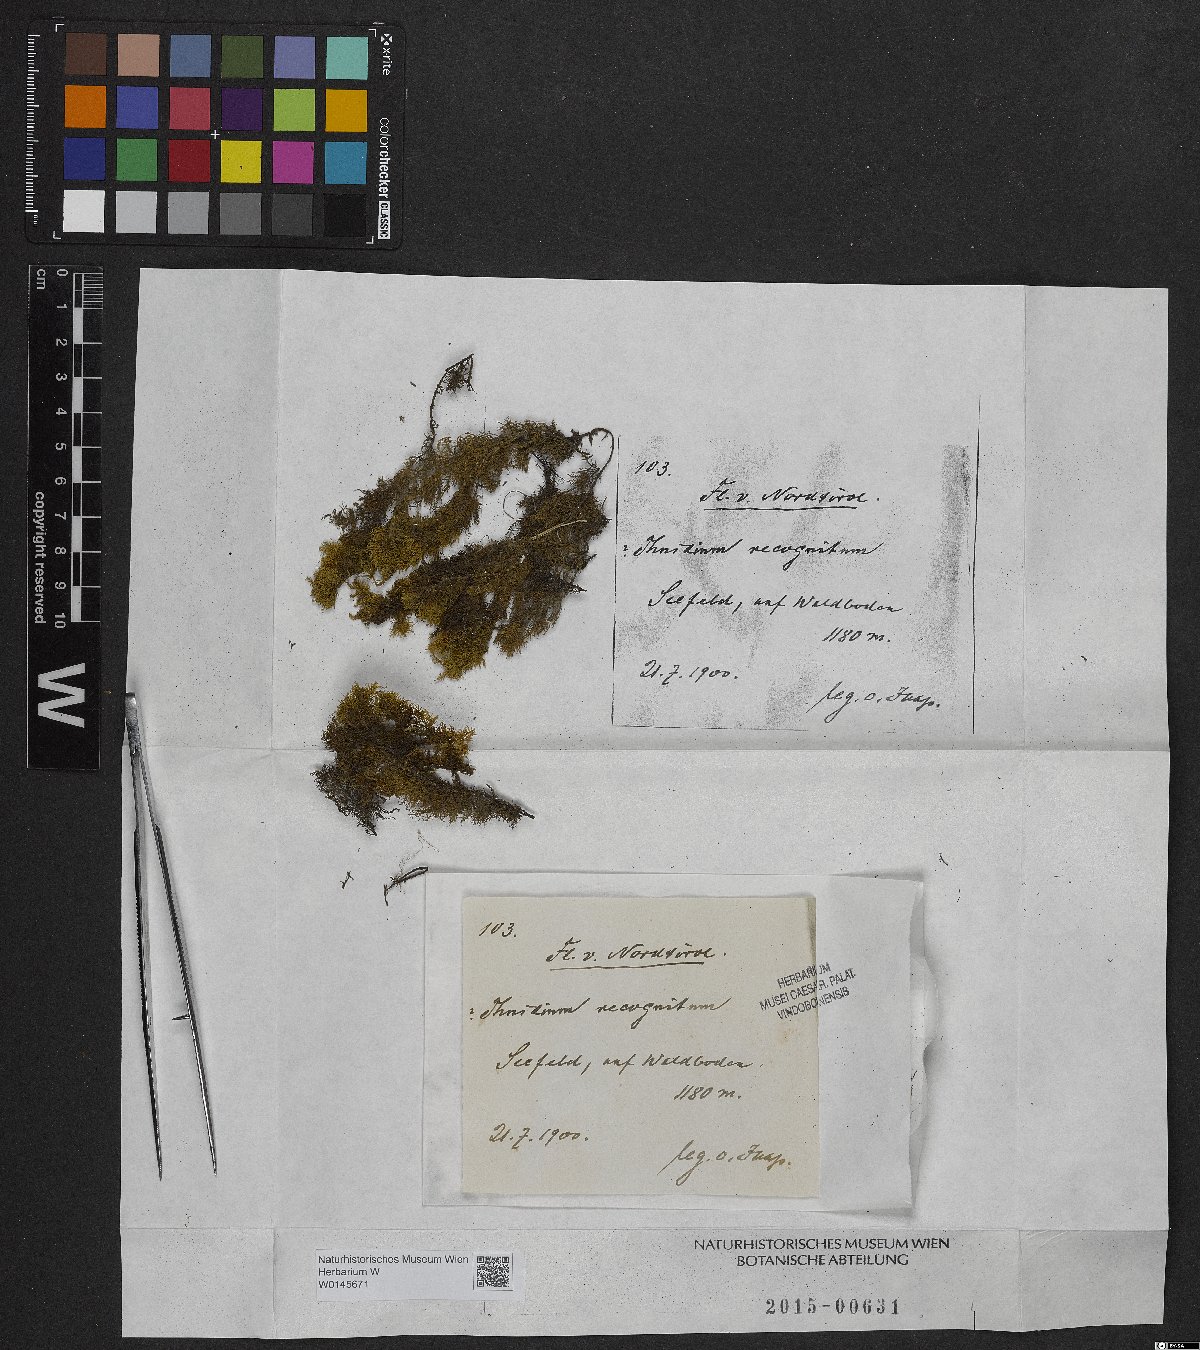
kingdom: Plantae
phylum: Bryophyta
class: Bryopsida
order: Hypnales
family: Thuidiaceae
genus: Thuidium
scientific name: Thuidium recognitum
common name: Hook-leaved fern moss
